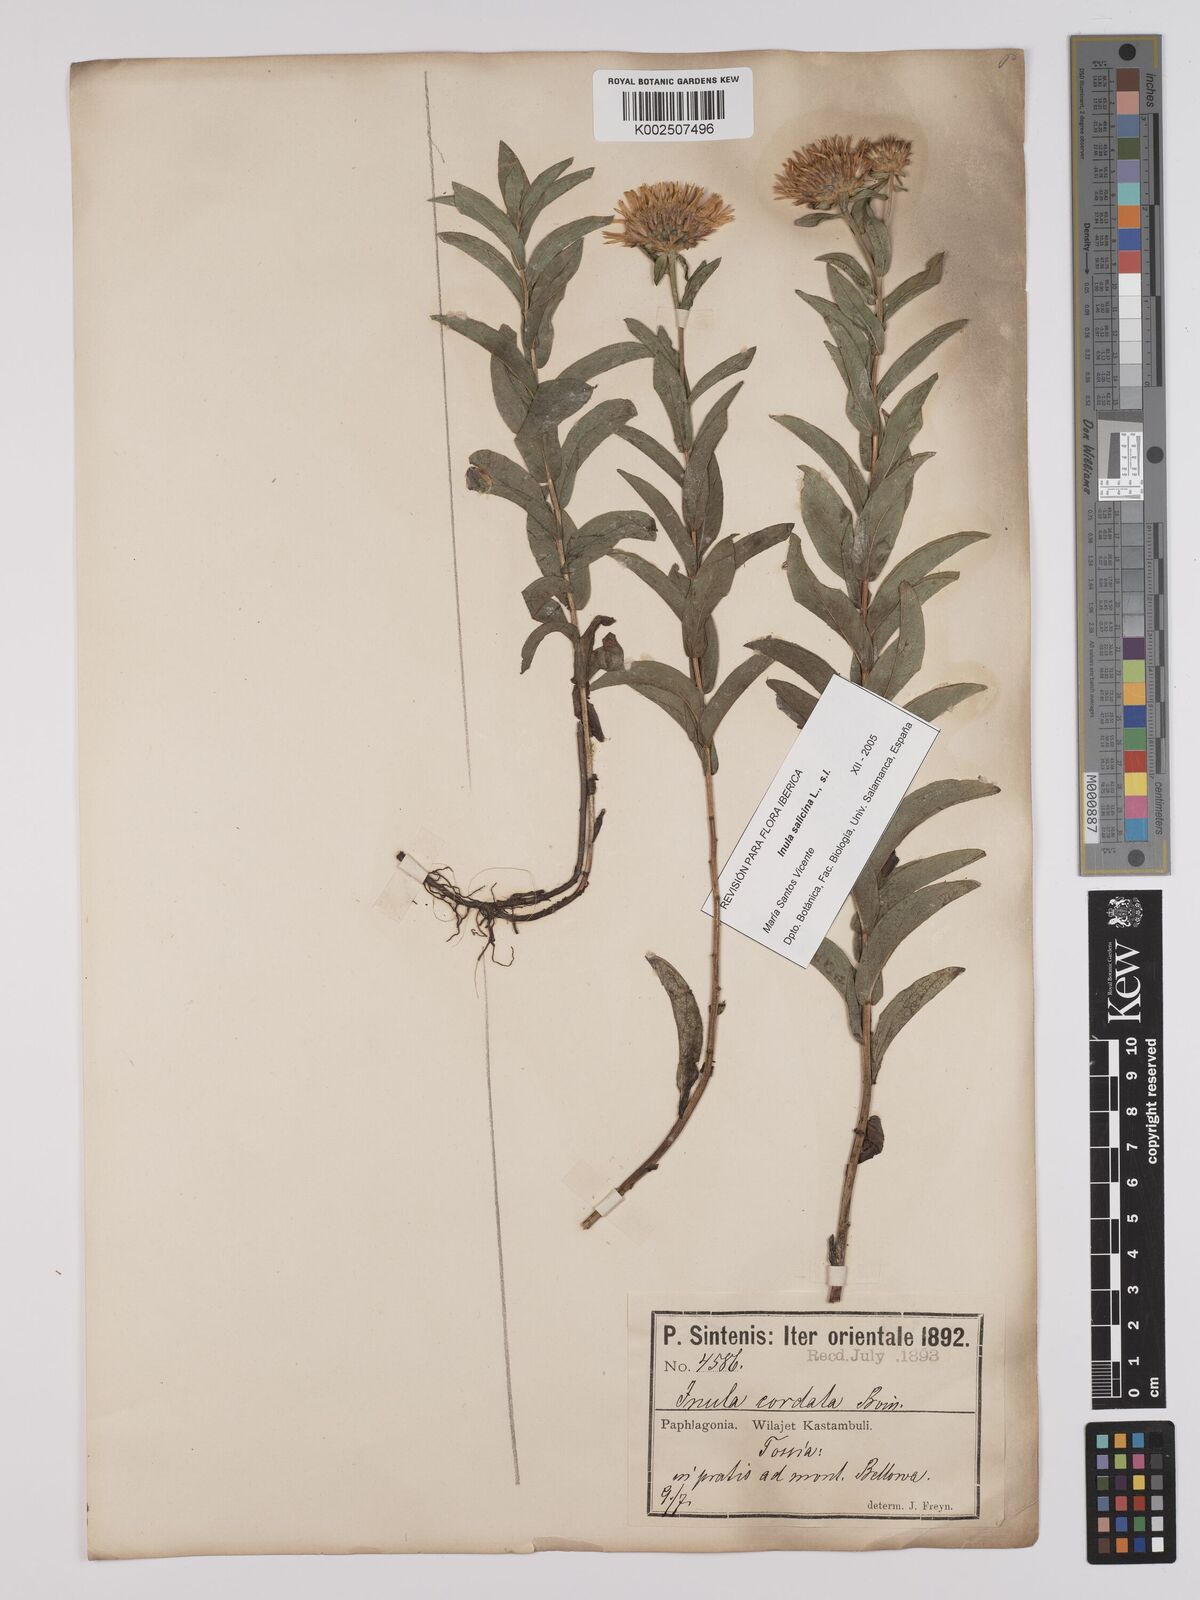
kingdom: Plantae
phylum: Tracheophyta
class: Magnoliopsida
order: Asterales
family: Asteraceae
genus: Pentanema
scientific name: Pentanema salicinum
